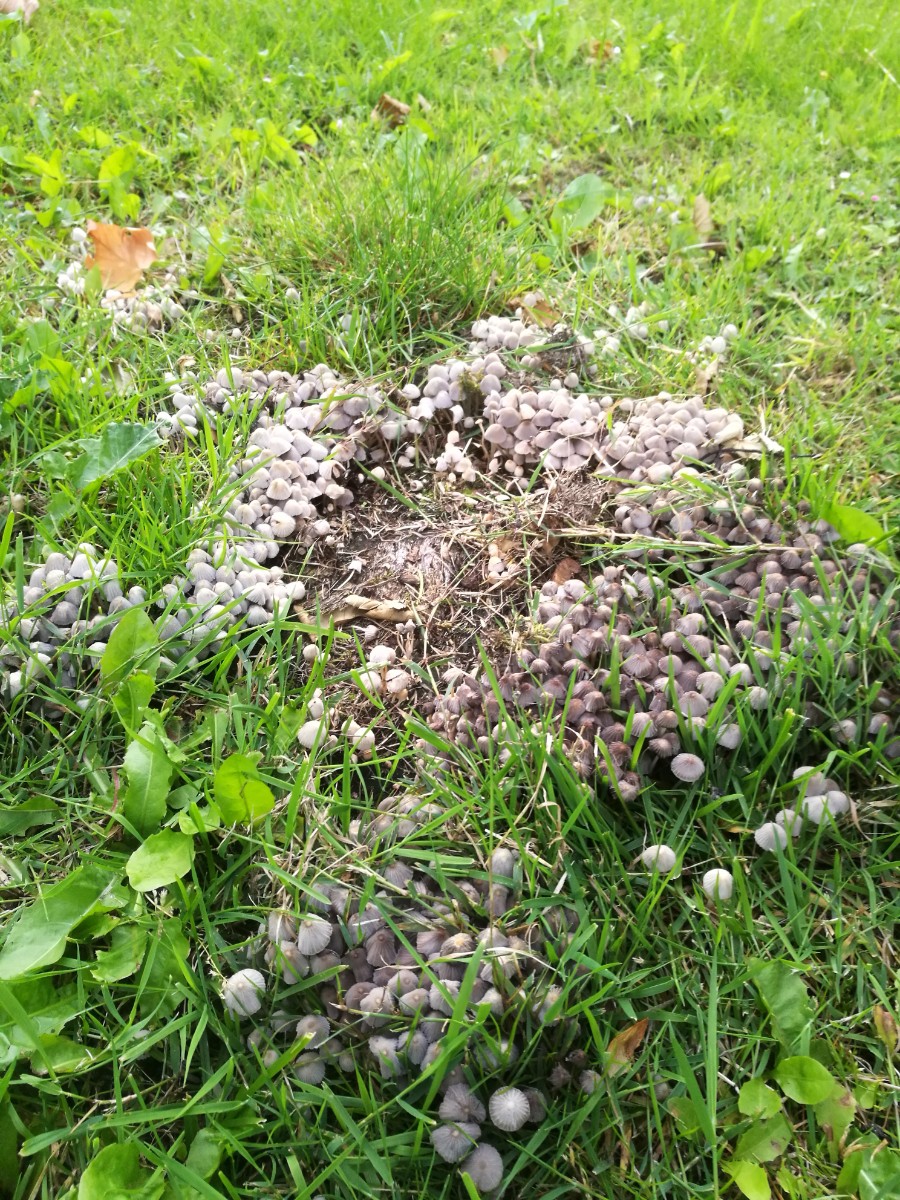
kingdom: Fungi
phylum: Basidiomycota
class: Agaricomycetes
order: Agaricales
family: Psathyrellaceae
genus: Coprinellus
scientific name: Coprinellus disseminatus
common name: bredsået blækhat
